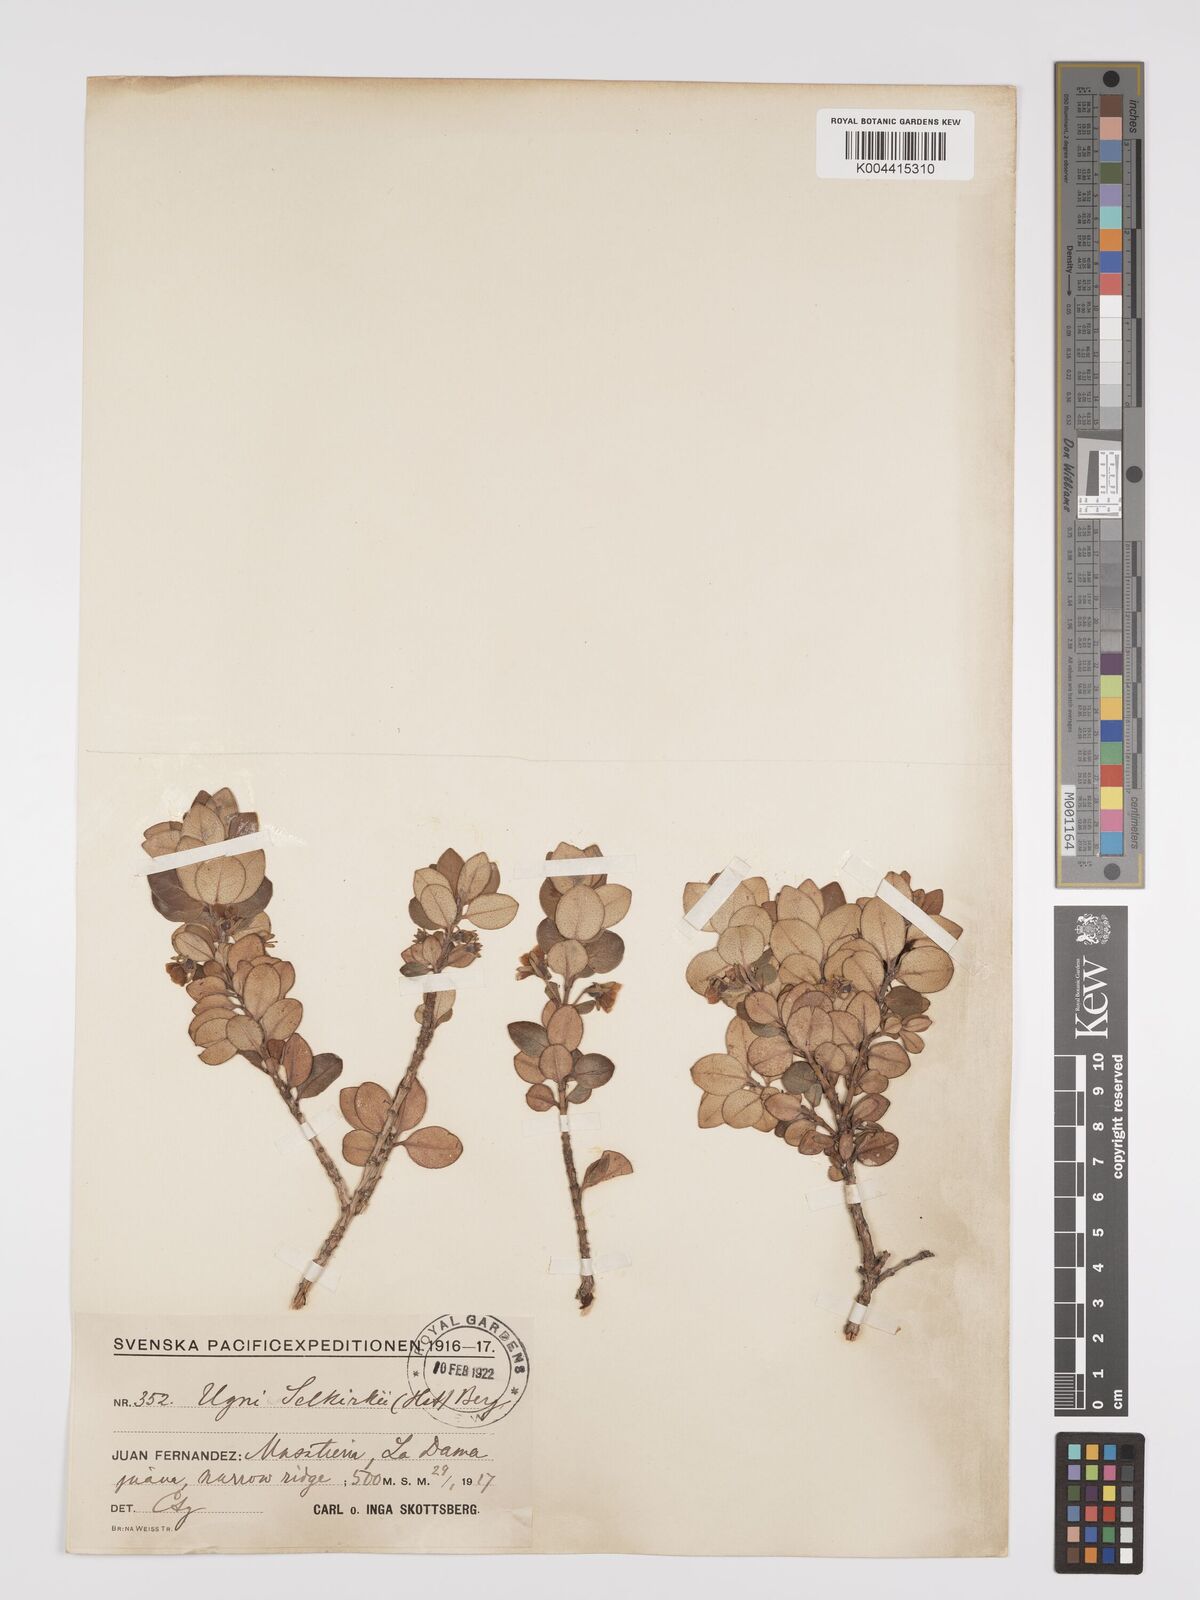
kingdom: Plantae
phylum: Tracheophyta
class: Magnoliopsida
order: Myrtales
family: Myrtaceae
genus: Ugni
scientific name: Ugni selkirkii
